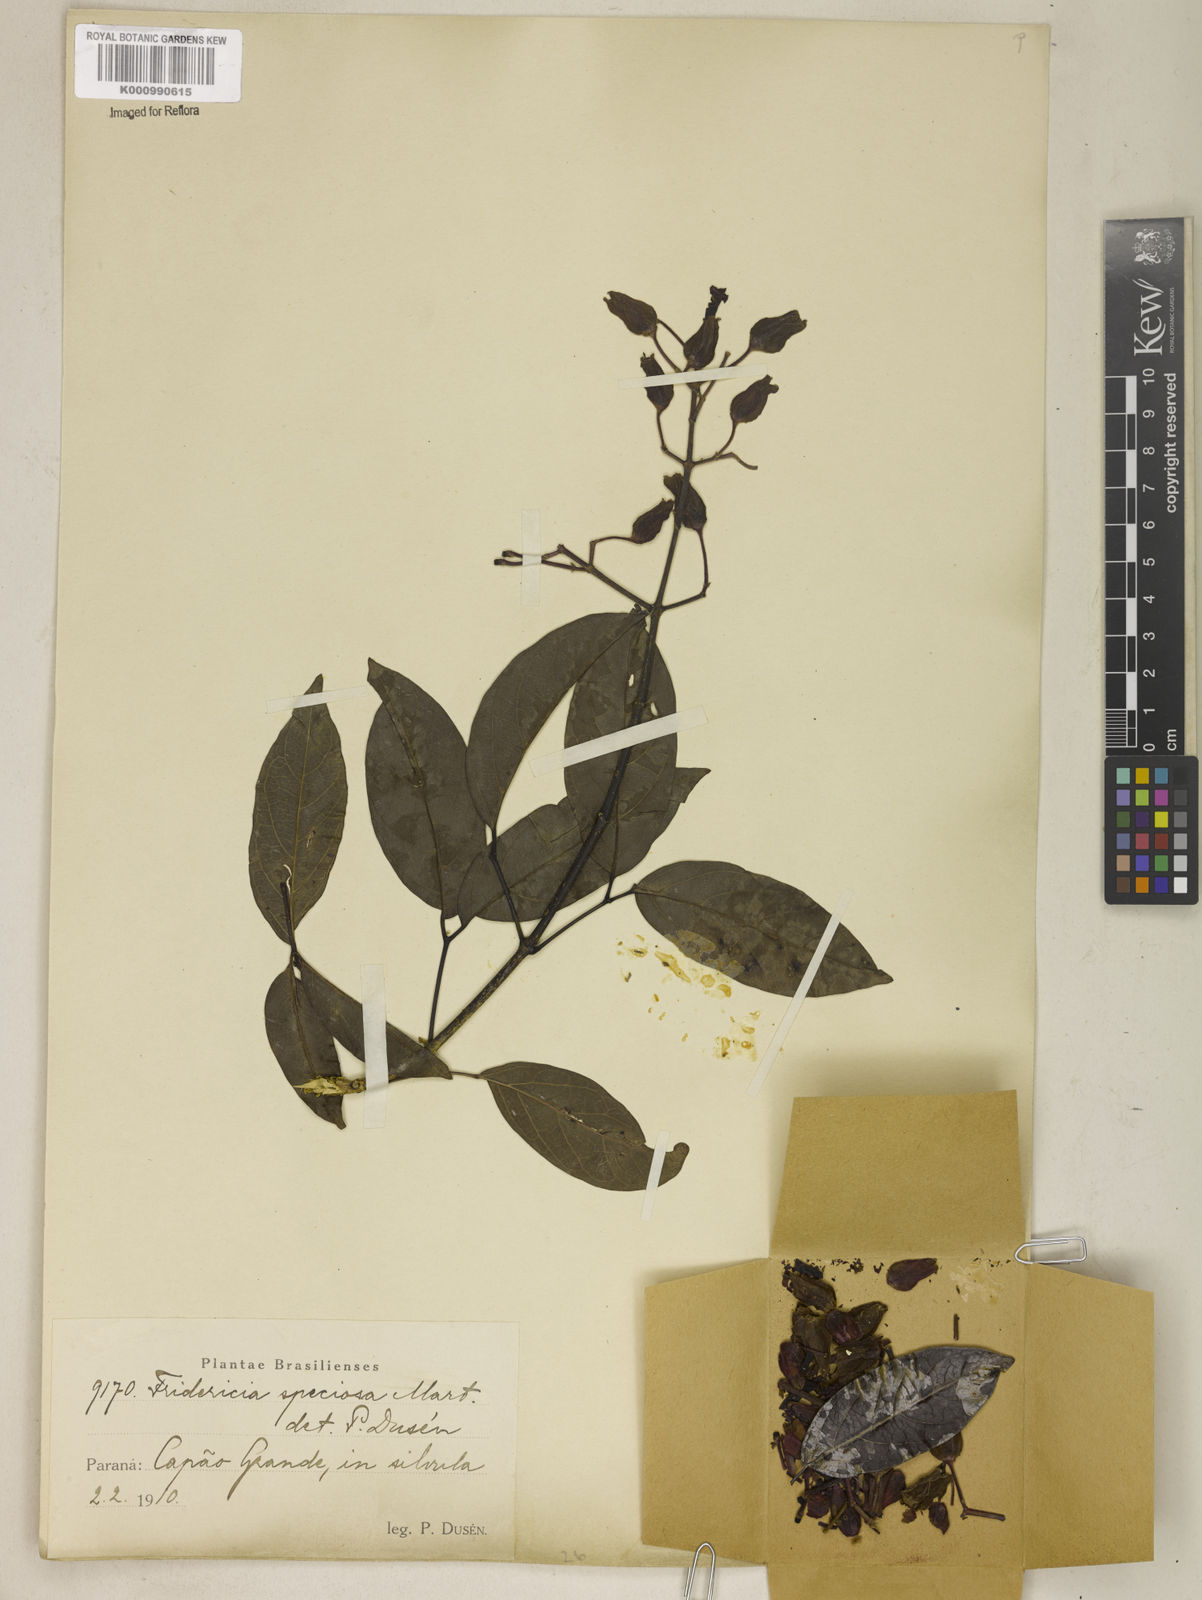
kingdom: Plantae
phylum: Tracheophyta
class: Magnoliopsida
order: Lamiales
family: Bignoniaceae
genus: Fridericia
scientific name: Fridericia speciosa
